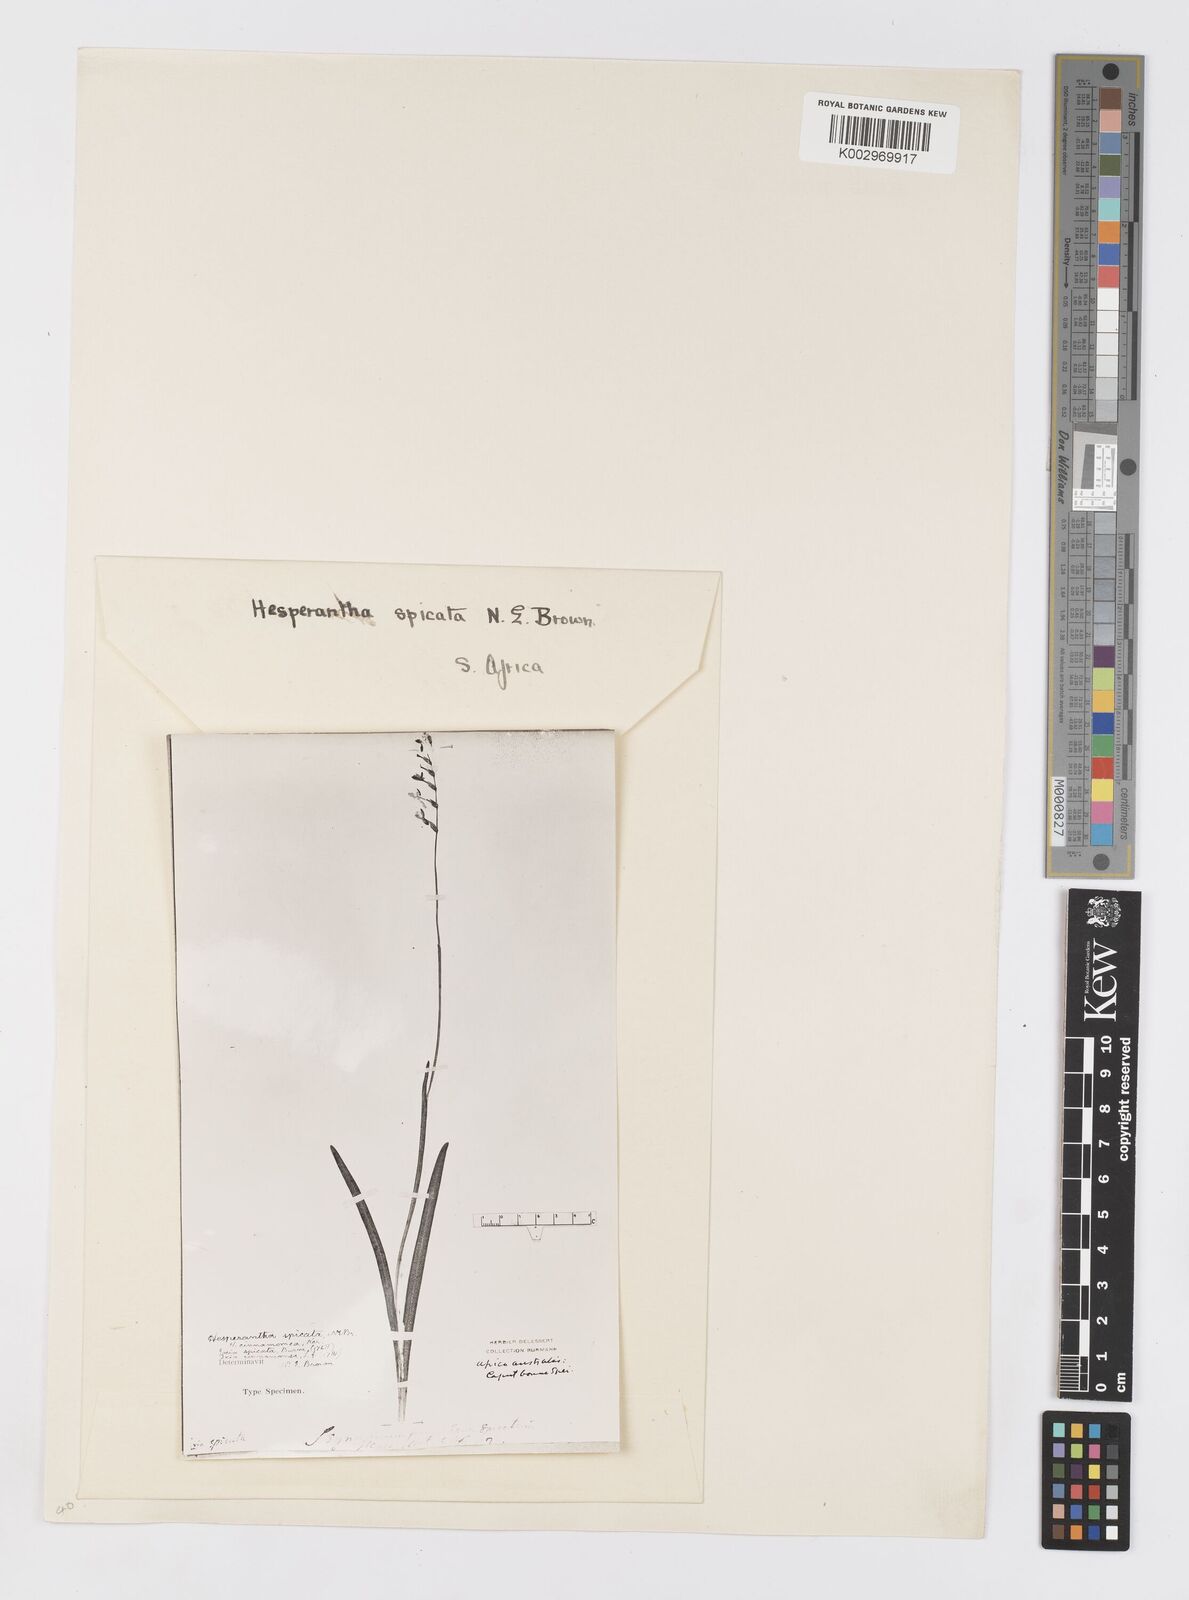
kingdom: Plantae
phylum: Tracheophyta
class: Liliopsida
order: Asparagales
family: Iridaceae
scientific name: Iridaceae
